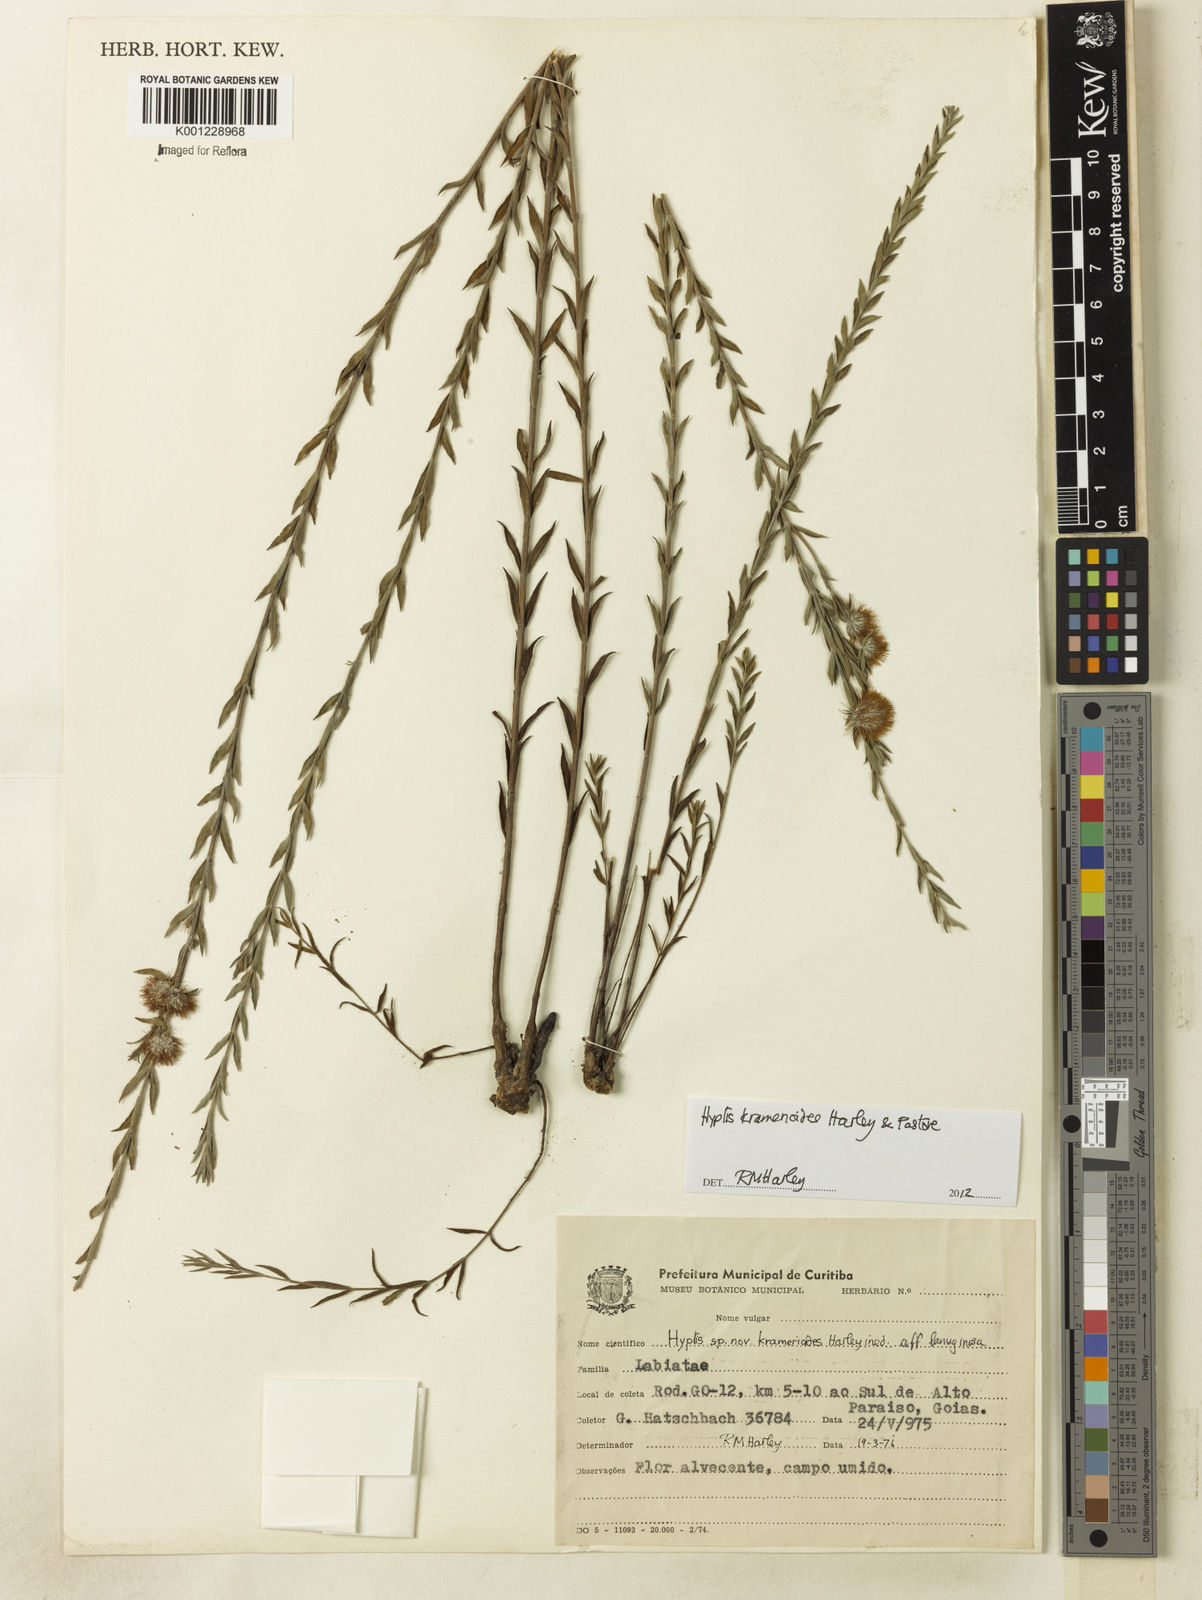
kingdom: Plantae
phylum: Tracheophyta
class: Magnoliopsida
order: Lamiales
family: Lamiaceae
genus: Hyptis
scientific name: Hyptis kramerioides
